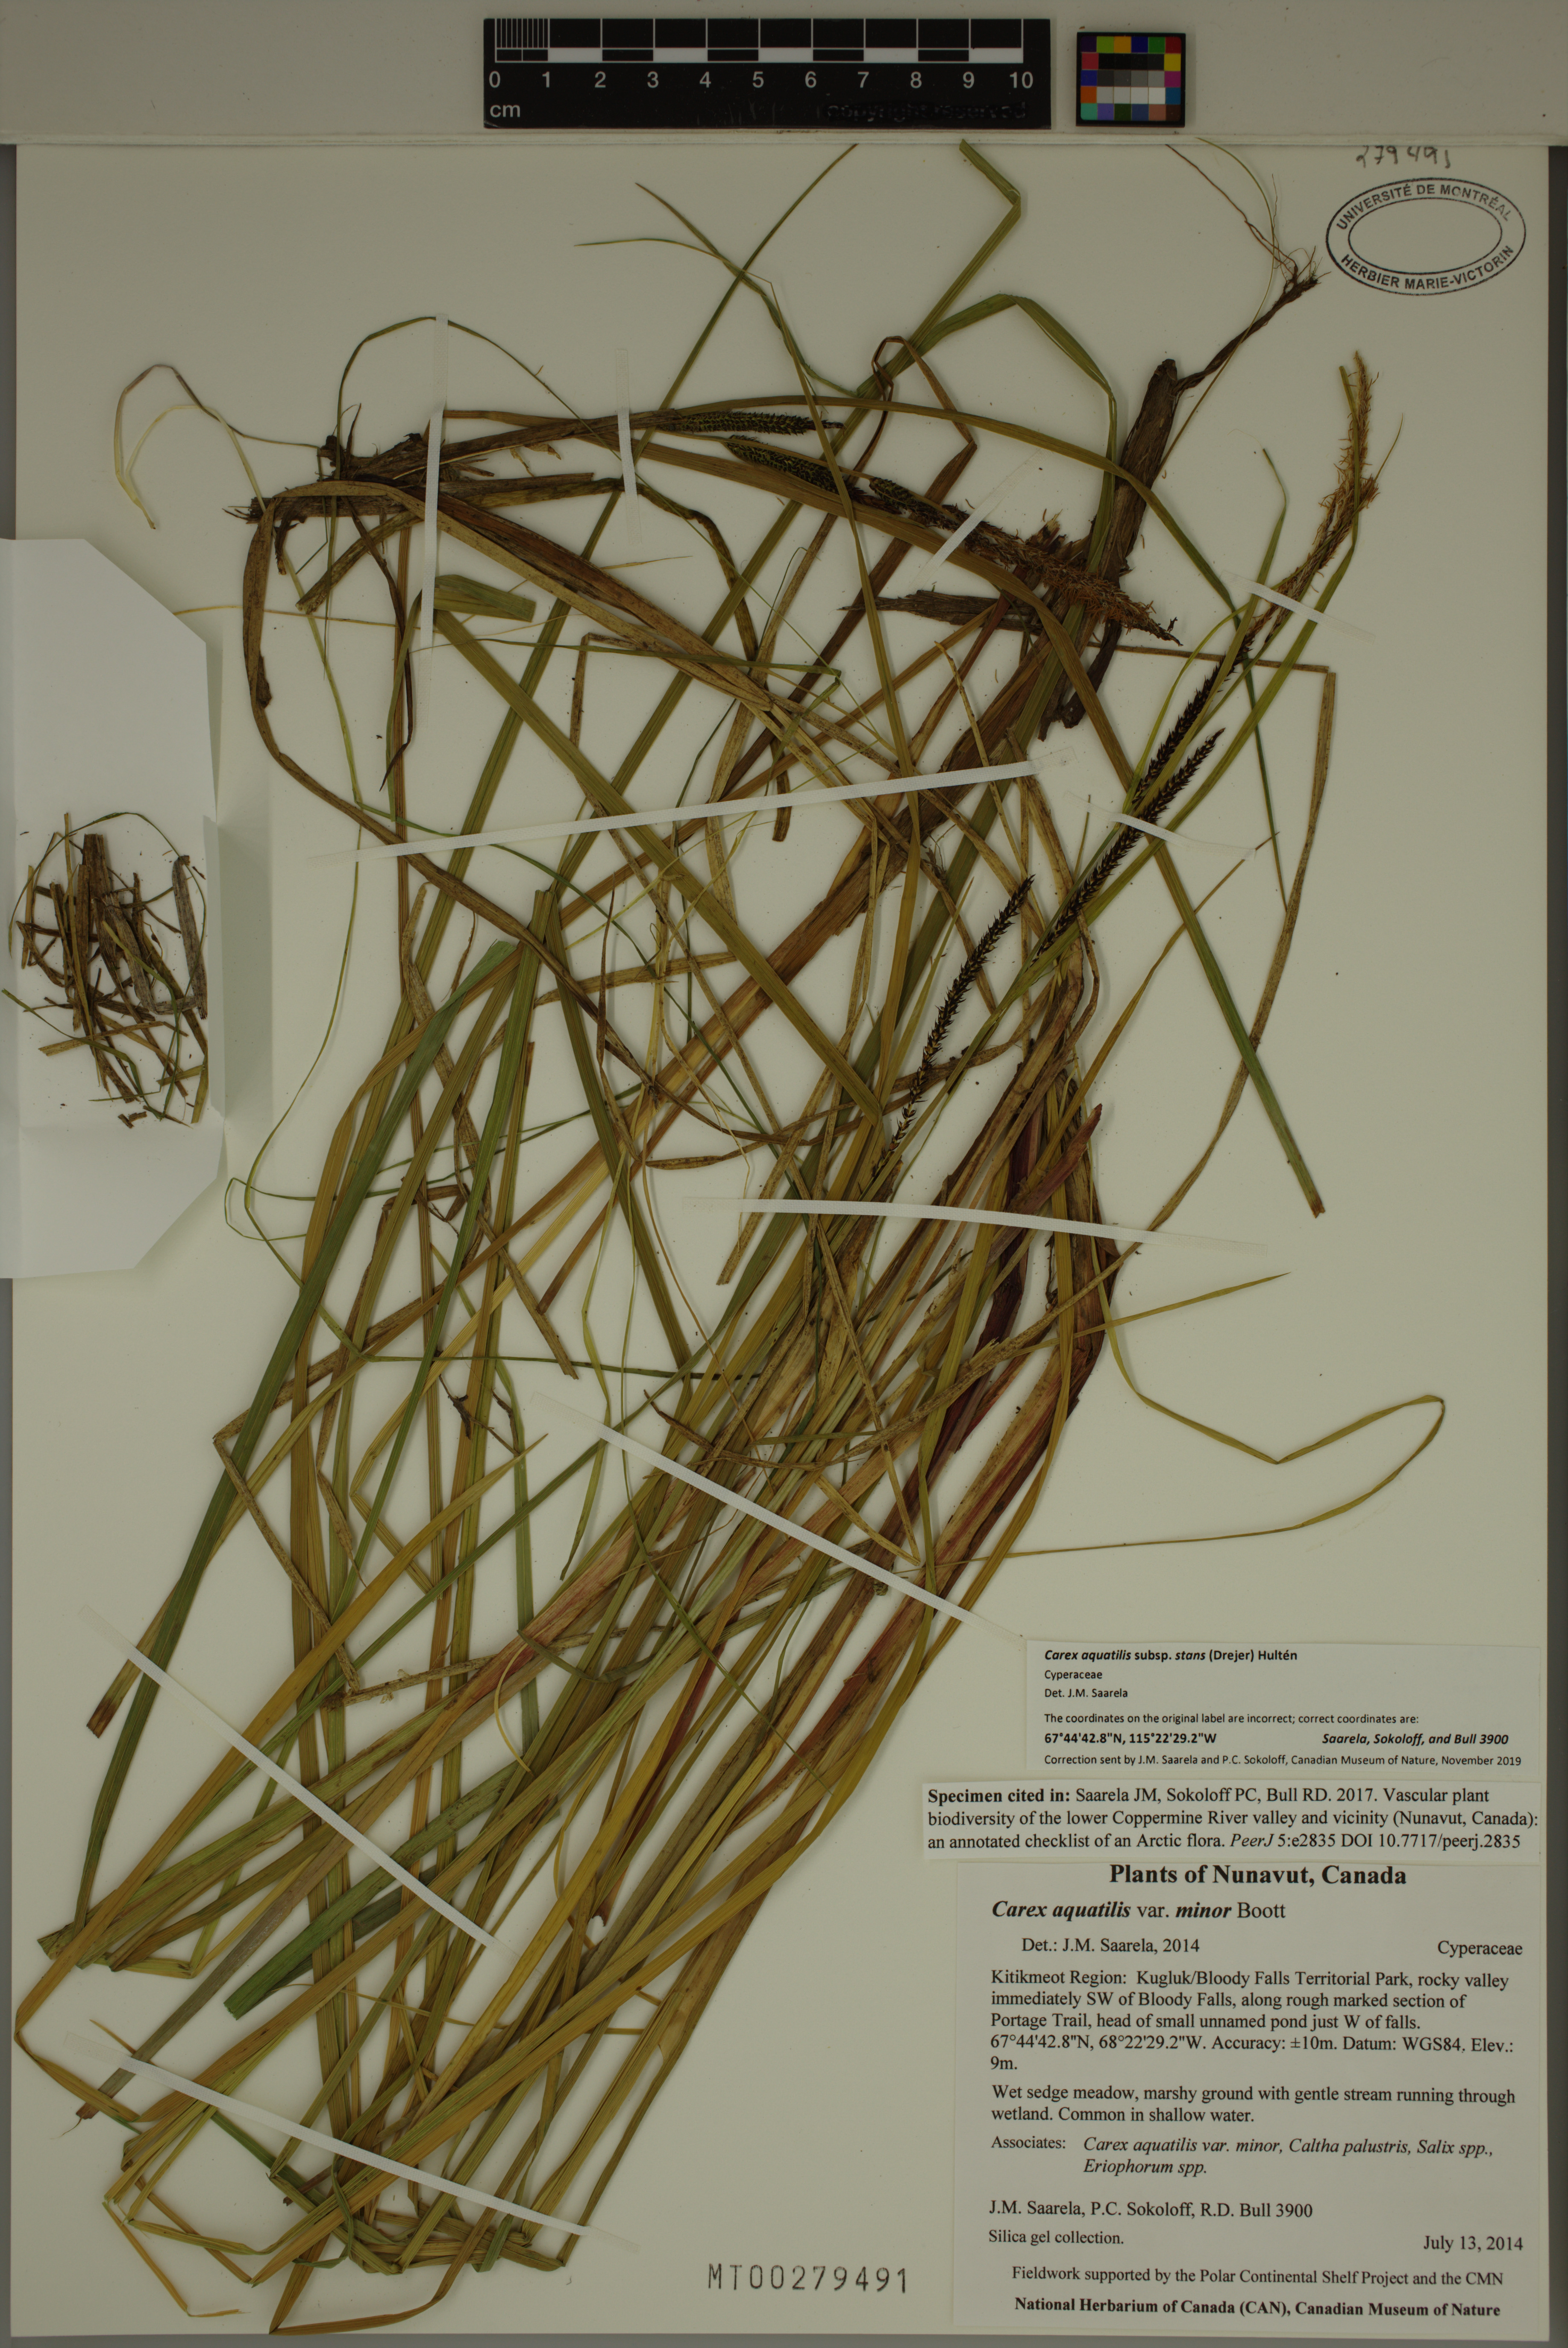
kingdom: Plantae
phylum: Tracheophyta
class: Liliopsida
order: Poales
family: Cyperaceae
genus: Carex
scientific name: Carex aquatilis
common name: Water sedge
